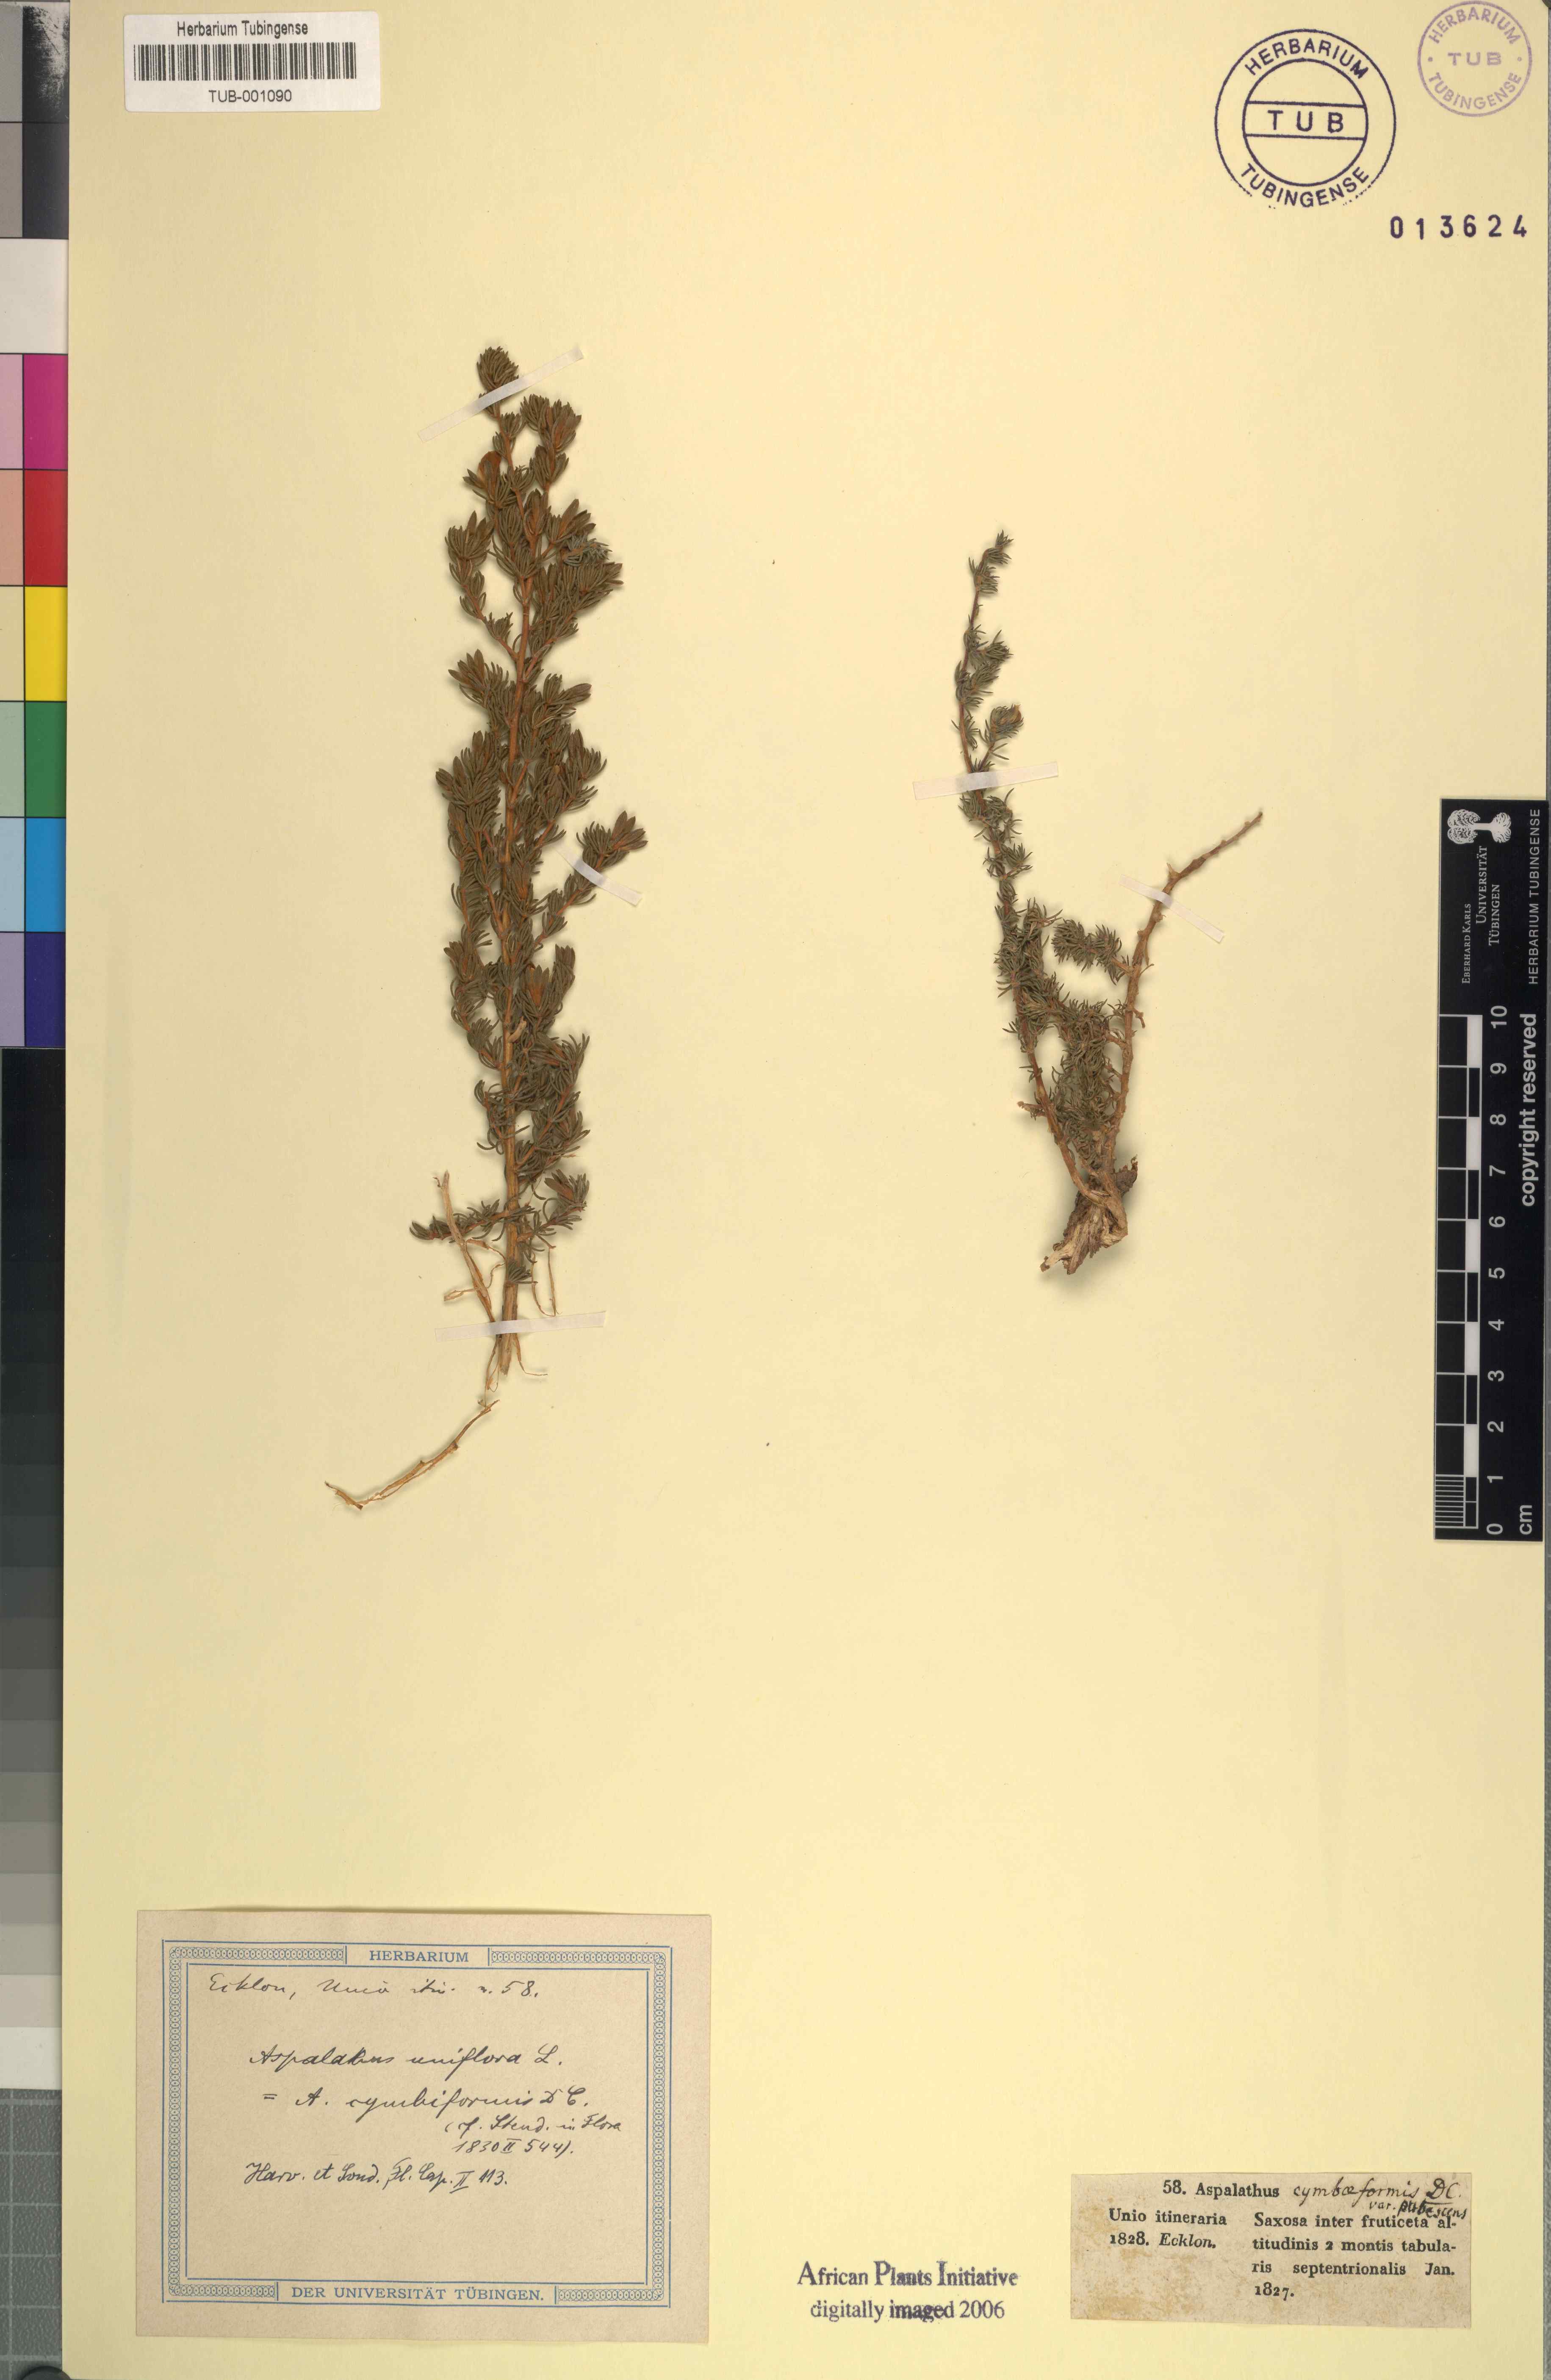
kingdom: Plantae
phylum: Tracheophyta
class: Magnoliopsida
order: Fabales
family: Fabaceae
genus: Aspalathus
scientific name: Aspalathus uniflora
